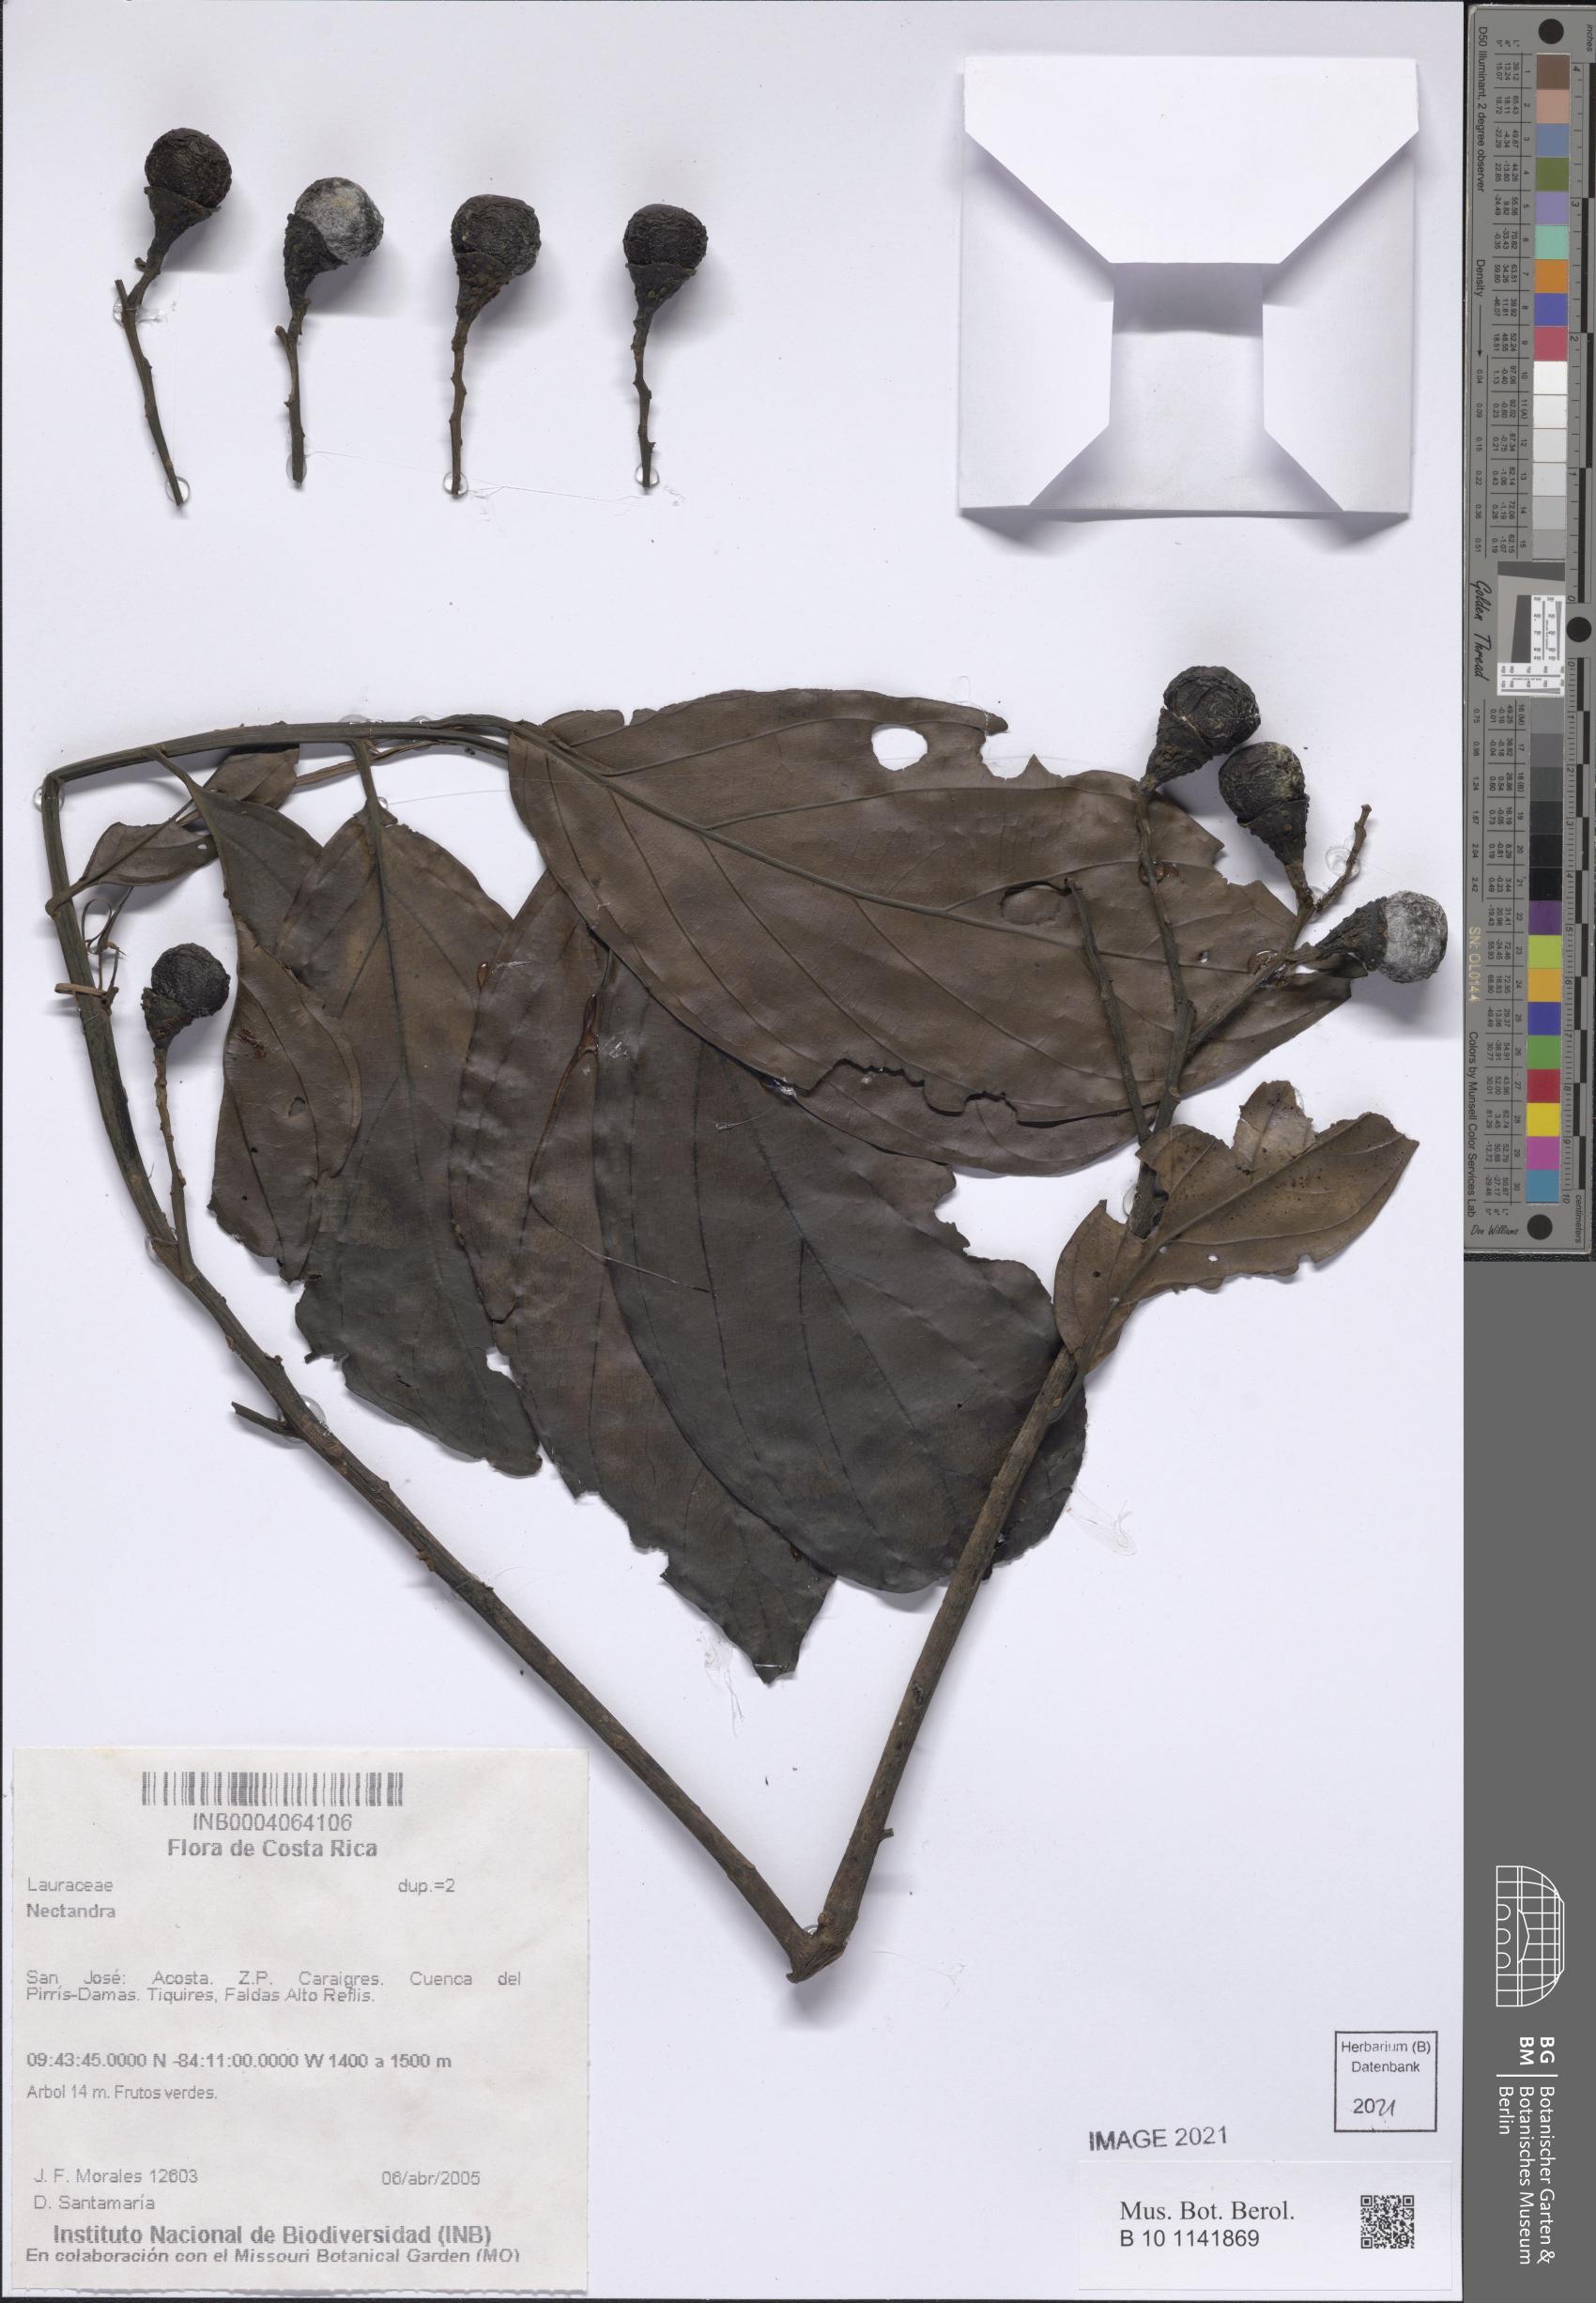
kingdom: Plantae
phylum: Tracheophyta
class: Magnoliopsida
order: Laurales
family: Lauraceae
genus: Nectandra
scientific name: Nectandra
